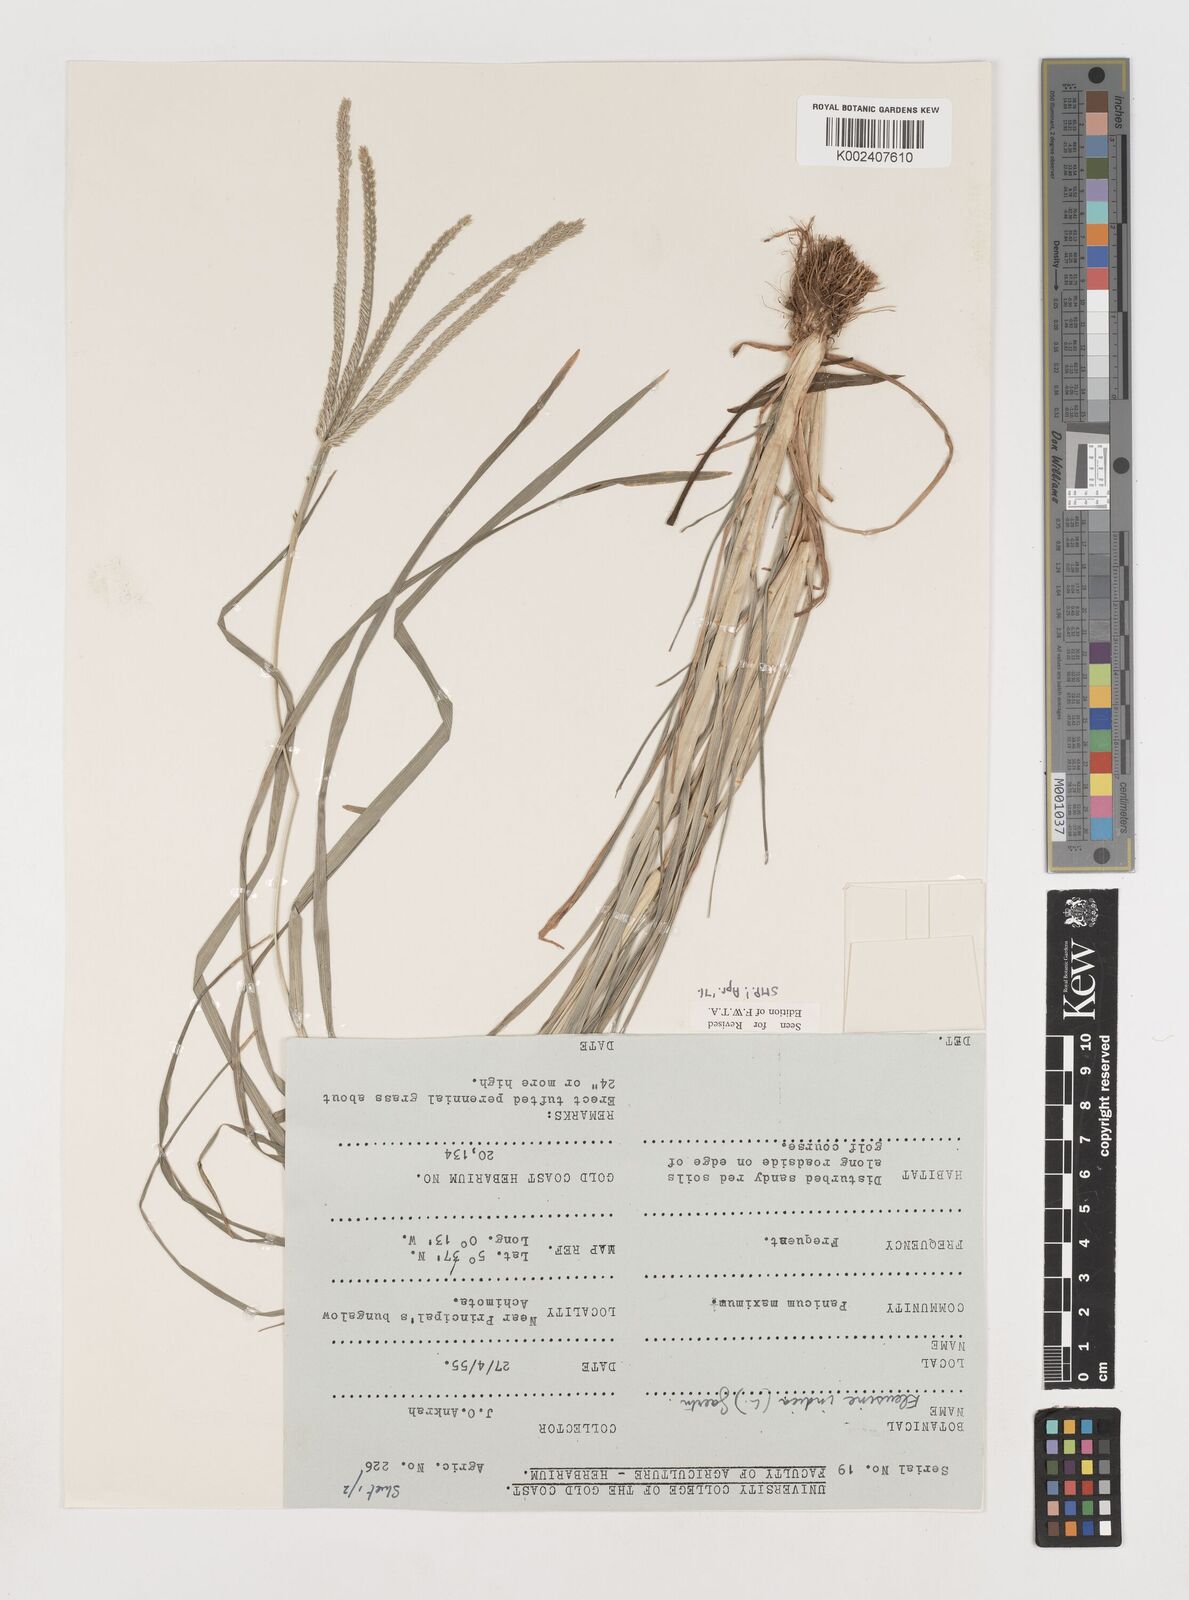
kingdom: Plantae
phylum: Tracheophyta
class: Liliopsida
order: Poales
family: Poaceae
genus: Eleusine
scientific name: Eleusine indica
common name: Yard-grass
